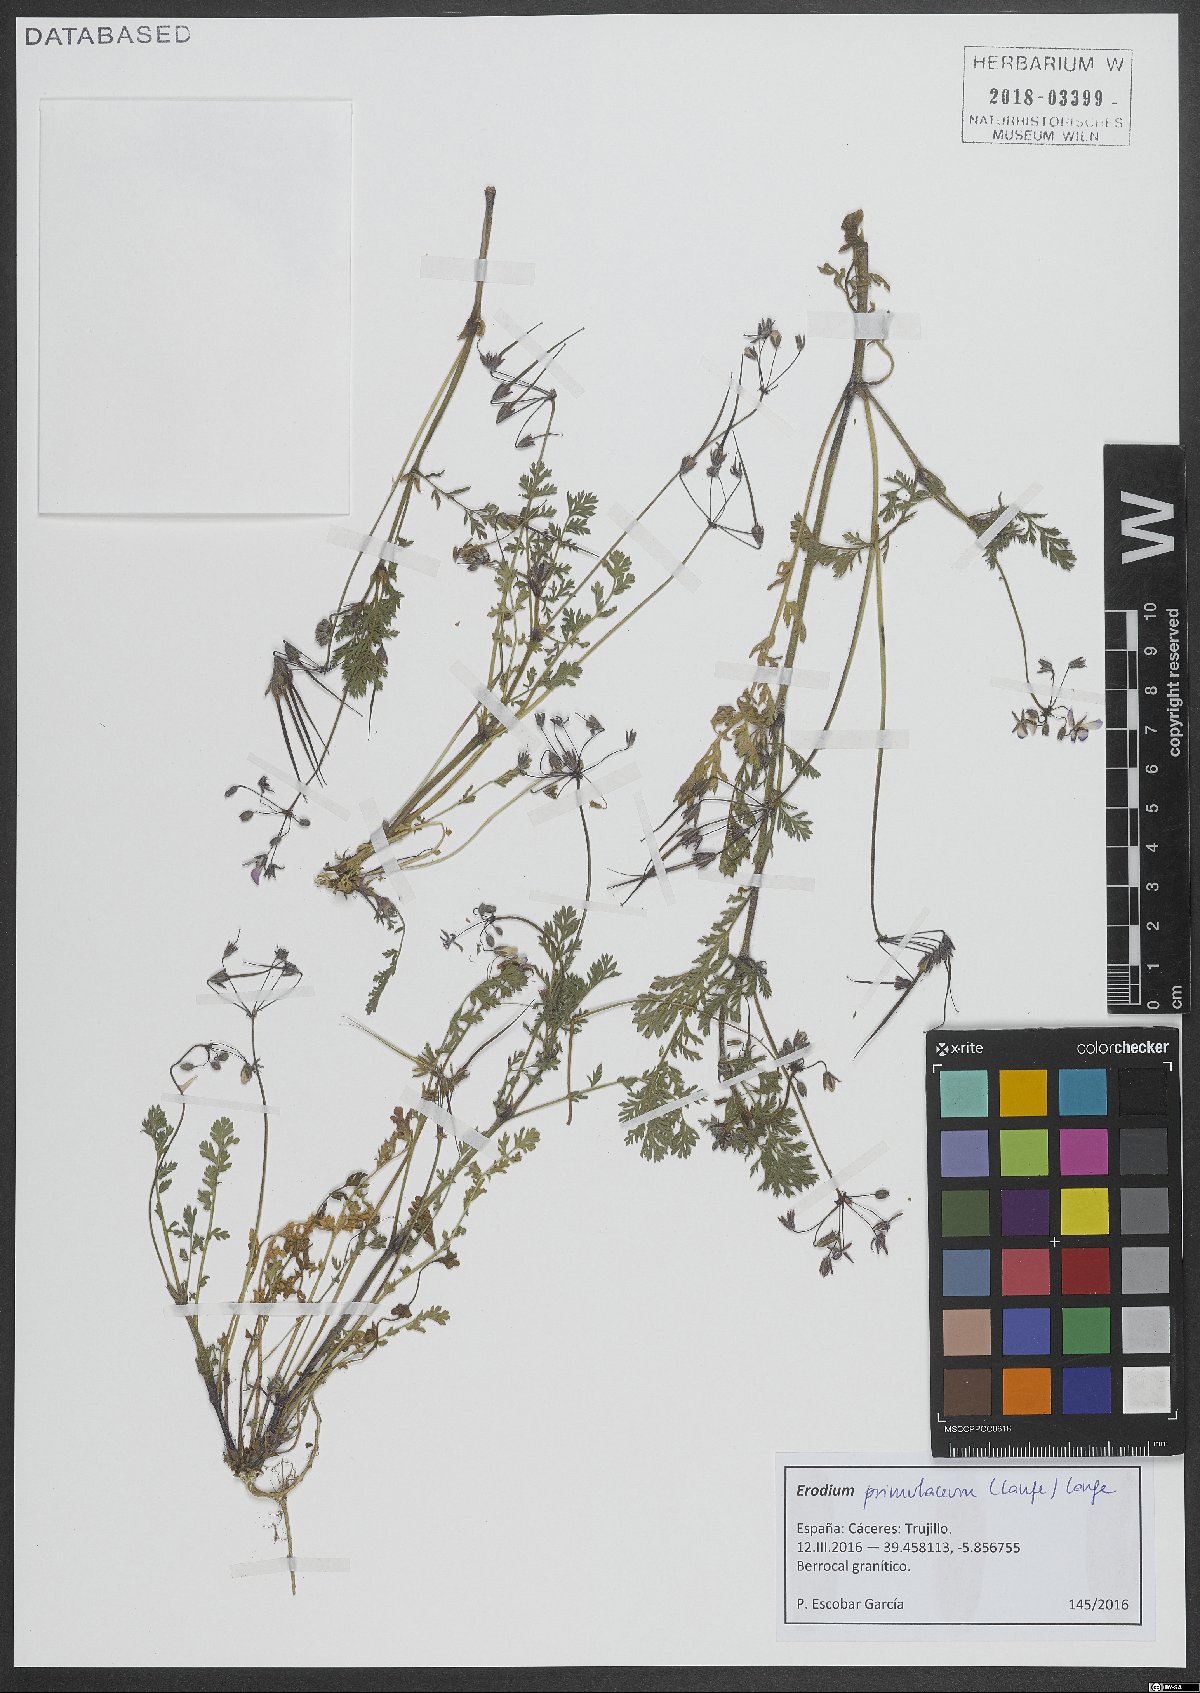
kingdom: Plantae
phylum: Tracheophyta
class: Magnoliopsida
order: Geraniales
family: Geraniaceae
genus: Erodium
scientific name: Erodium cicutarium
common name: Common stork's-bill
